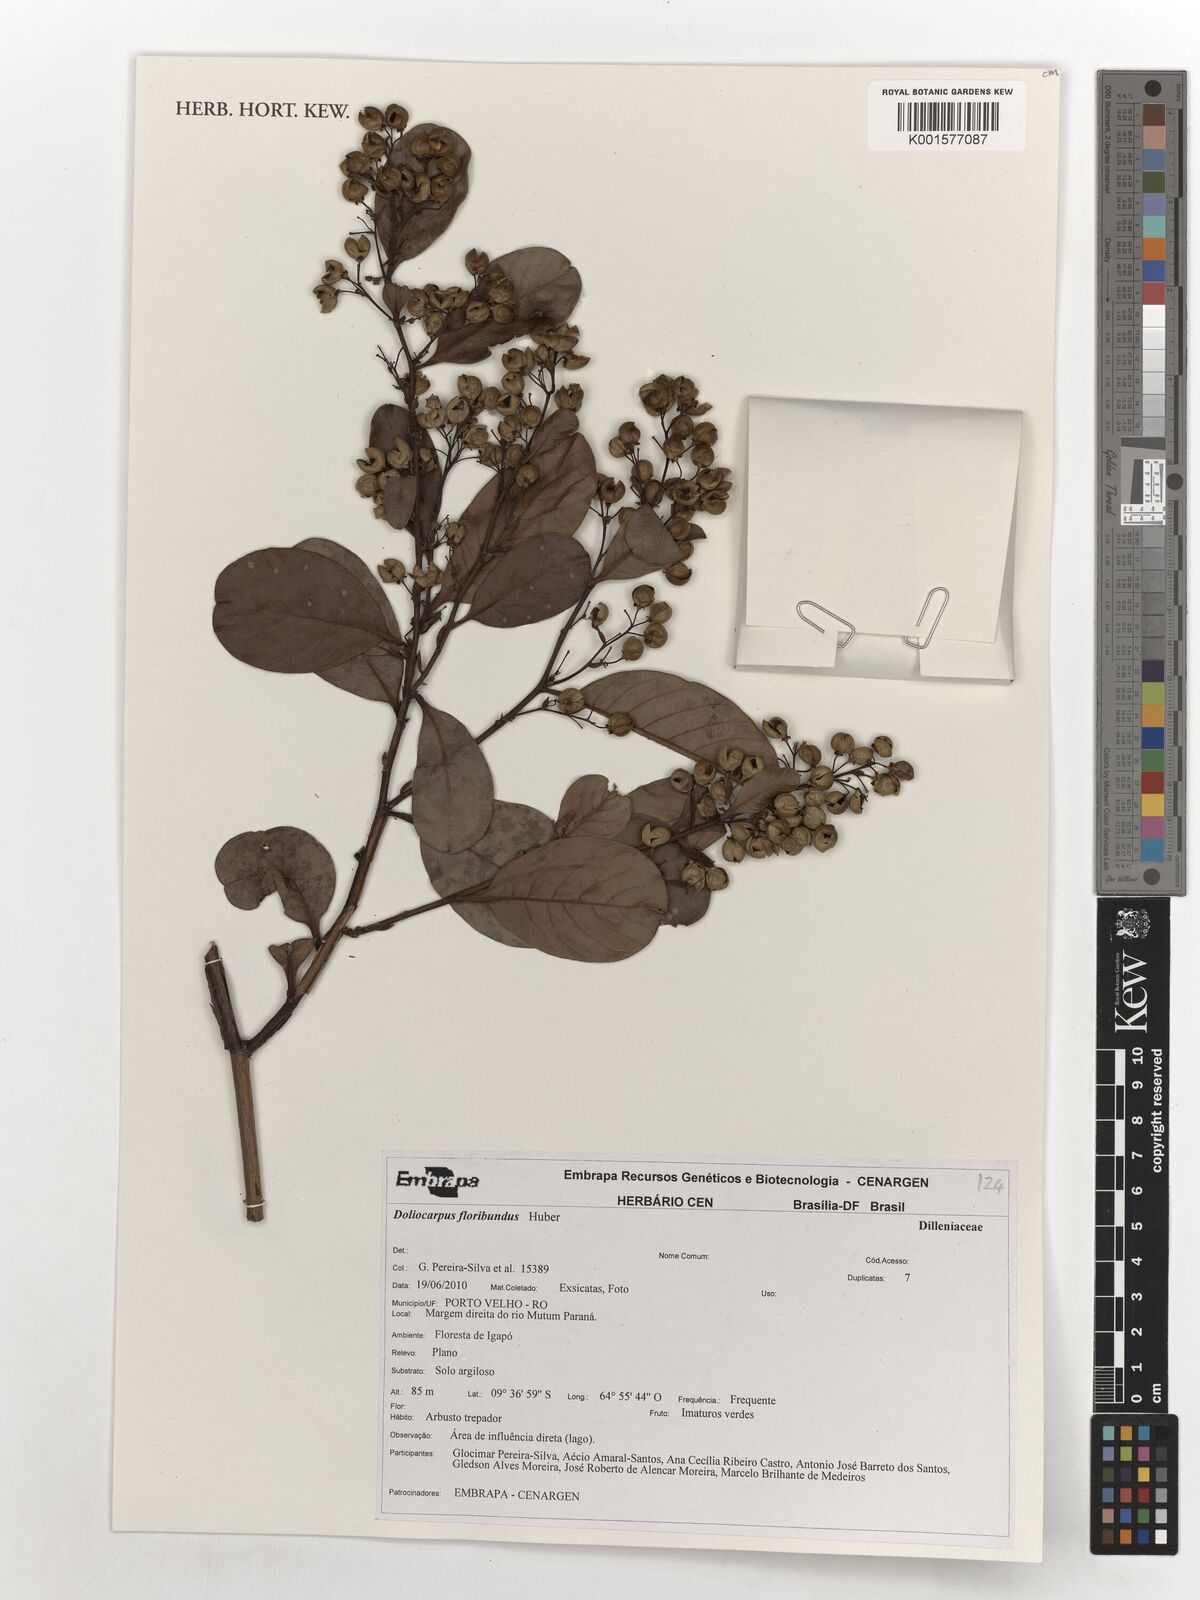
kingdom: Plantae
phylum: Tracheophyta
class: Magnoliopsida
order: Dilleniales
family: Dilleniaceae
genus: Doliocarpus
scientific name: Doliocarpus
